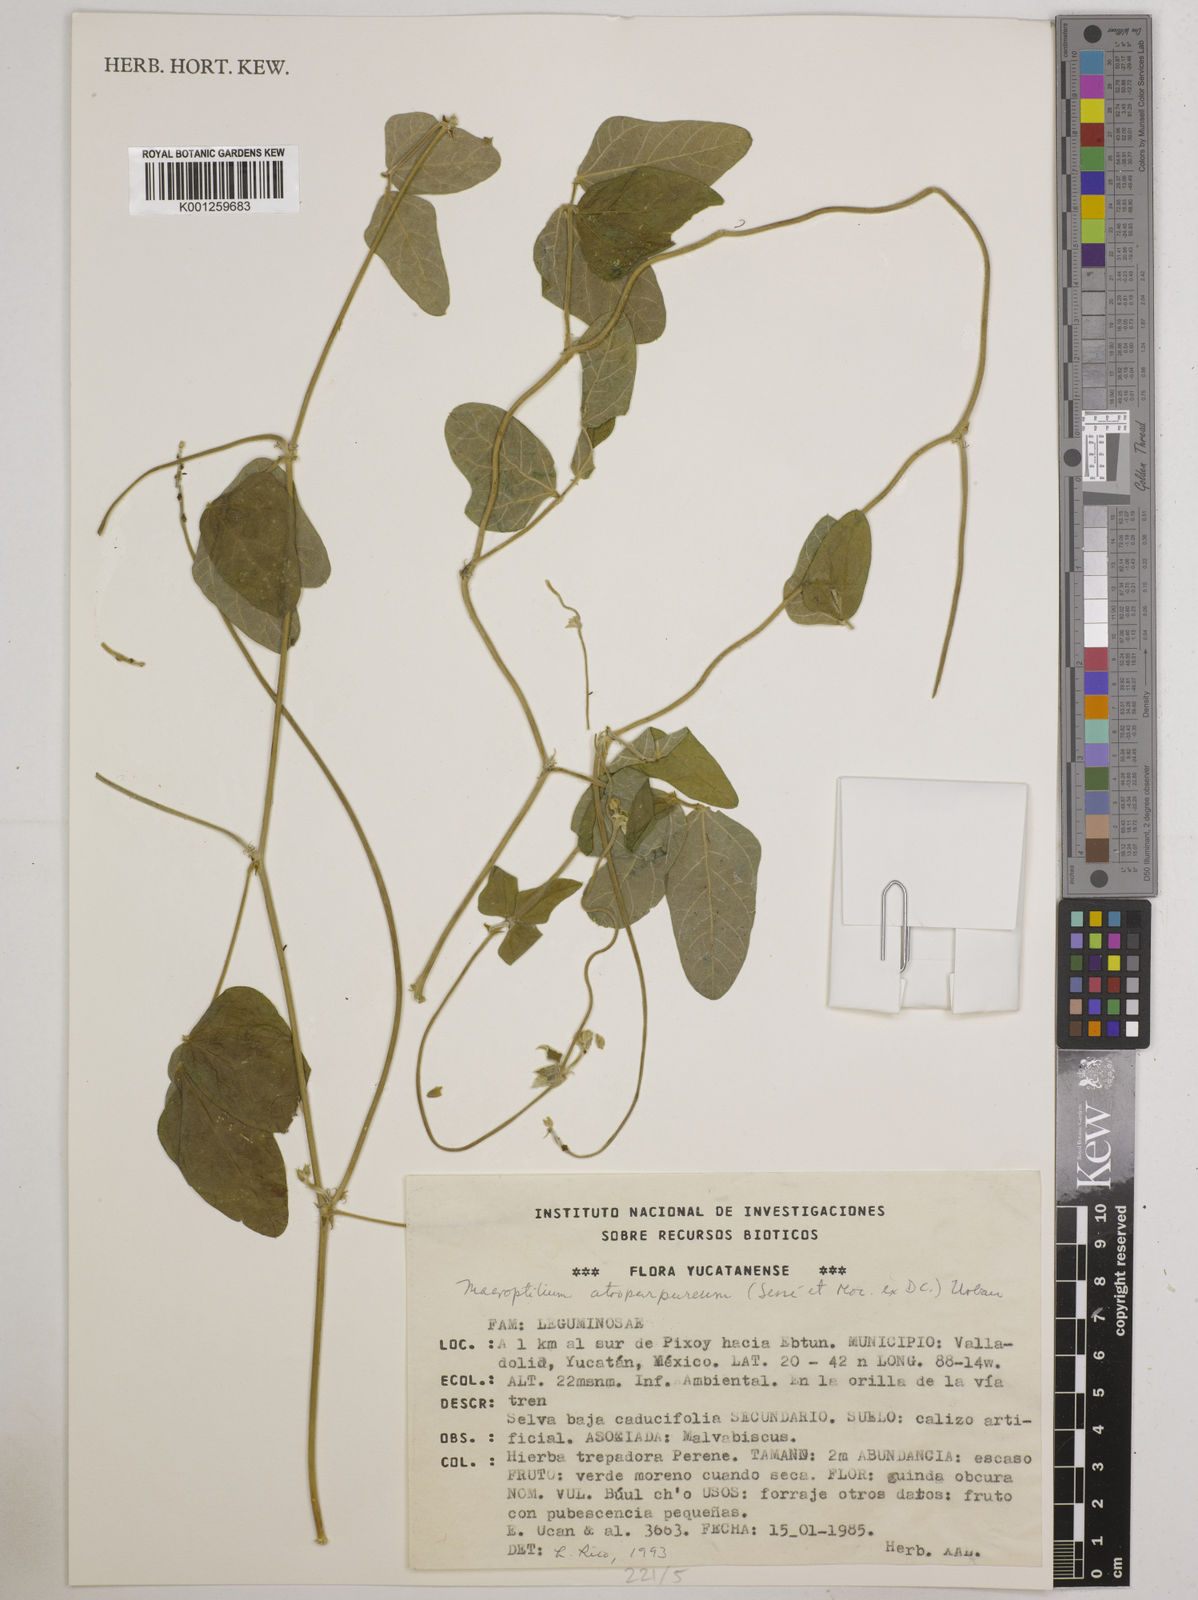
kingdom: Plantae
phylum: Tracheophyta
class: Magnoliopsida
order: Fabales
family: Fabaceae
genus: Macroptilium
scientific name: Macroptilium atropurpureum
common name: Purple bushbean
